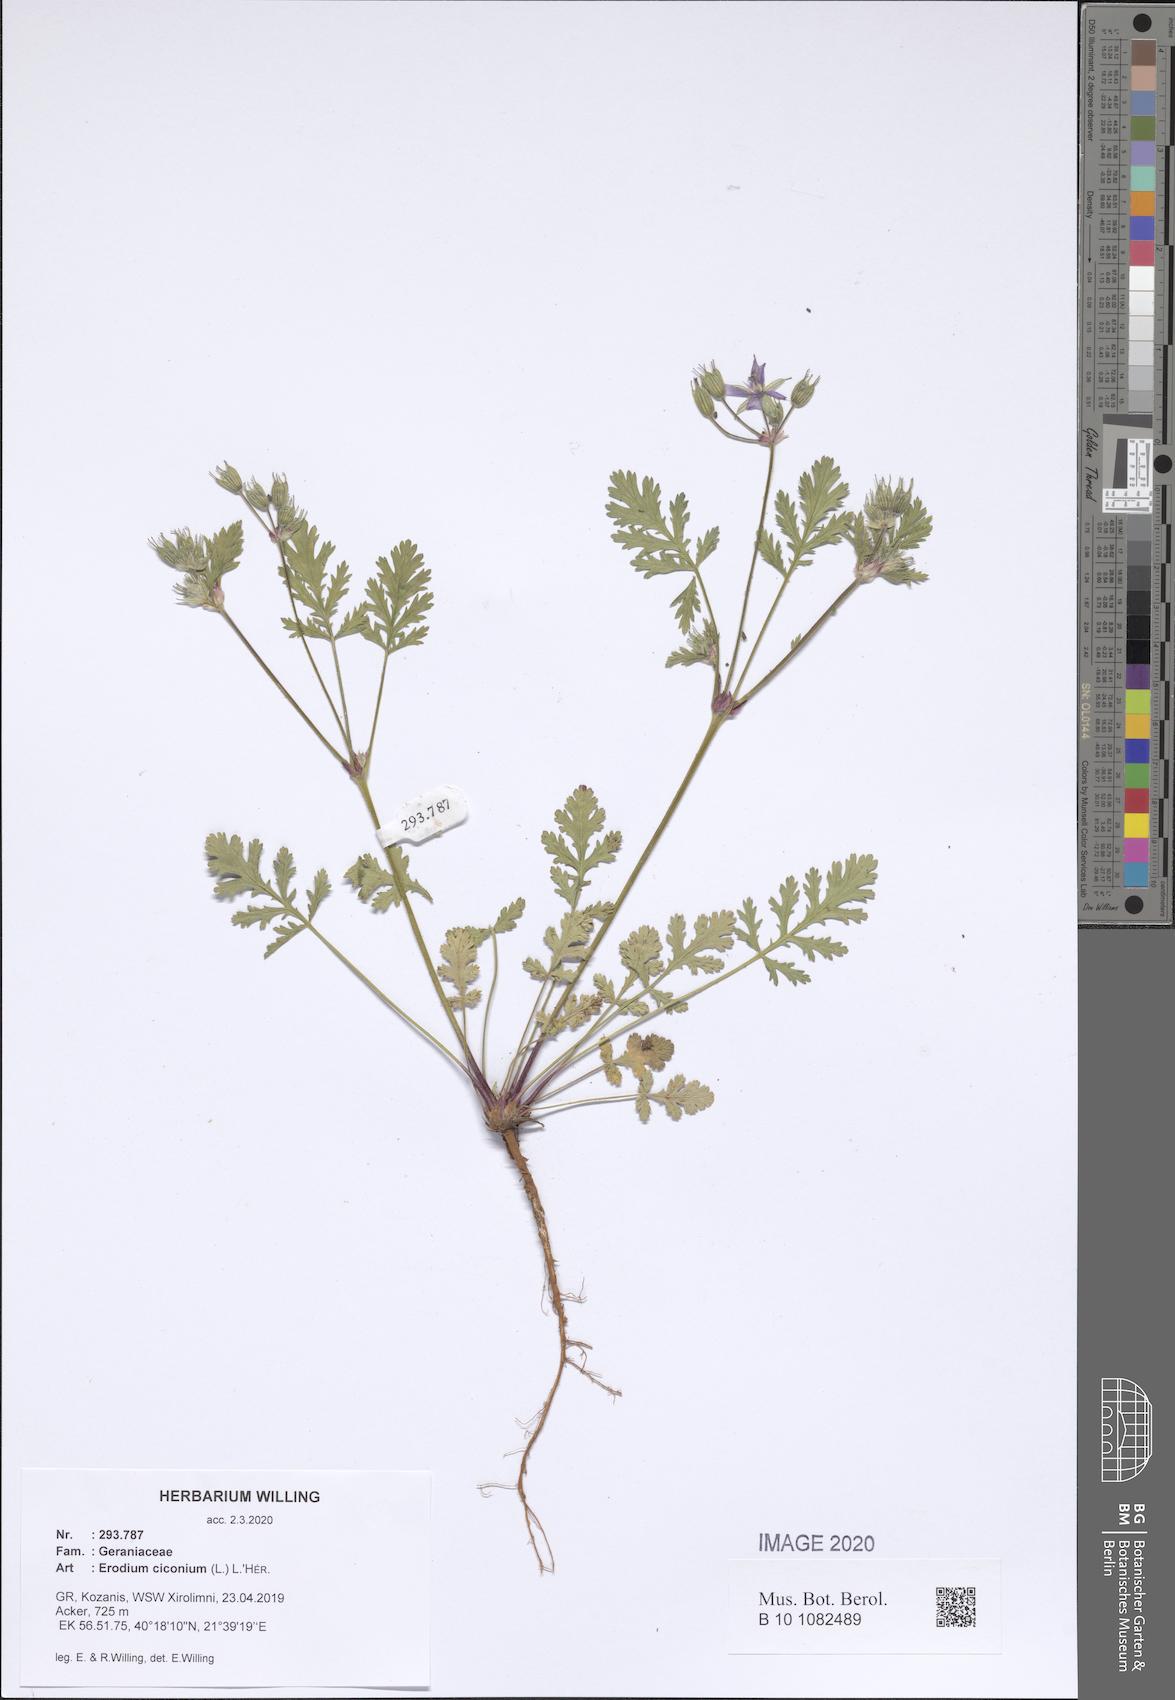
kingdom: Plantae
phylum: Tracheophyta
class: Magnoliopsida
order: Geraniales
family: Geraniaceae
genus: Erodium
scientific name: Erodium ciconium
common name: Common stork's bill
